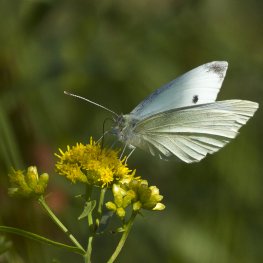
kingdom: Animalia
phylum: Arthropoda
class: Insecta
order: Lepidoptera
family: Pieridae
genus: Pieris
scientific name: Pieris rapae
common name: Cabbage White
